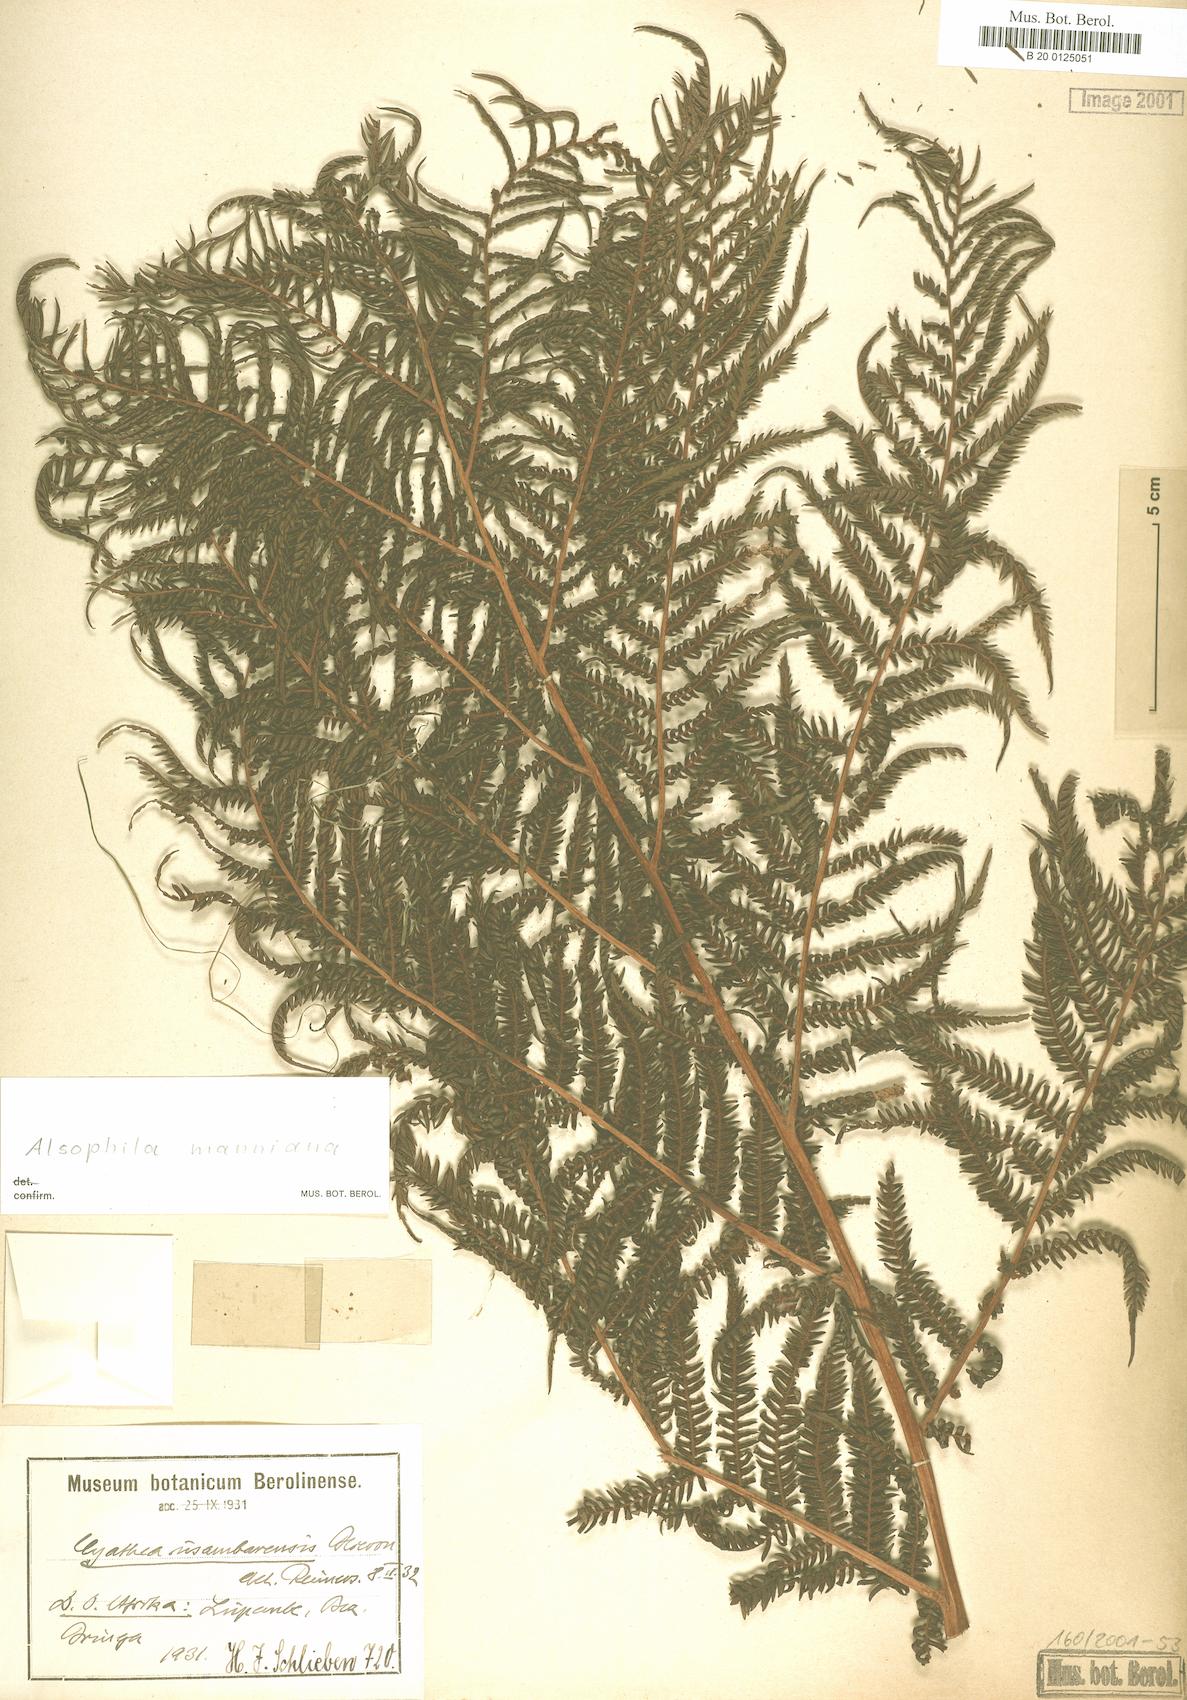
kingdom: Plantae
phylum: Tracheophyta
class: Polypodiopsida
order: Cyatheales
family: Cyatheaceae
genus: Alsophila
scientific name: Alsophila manniana
